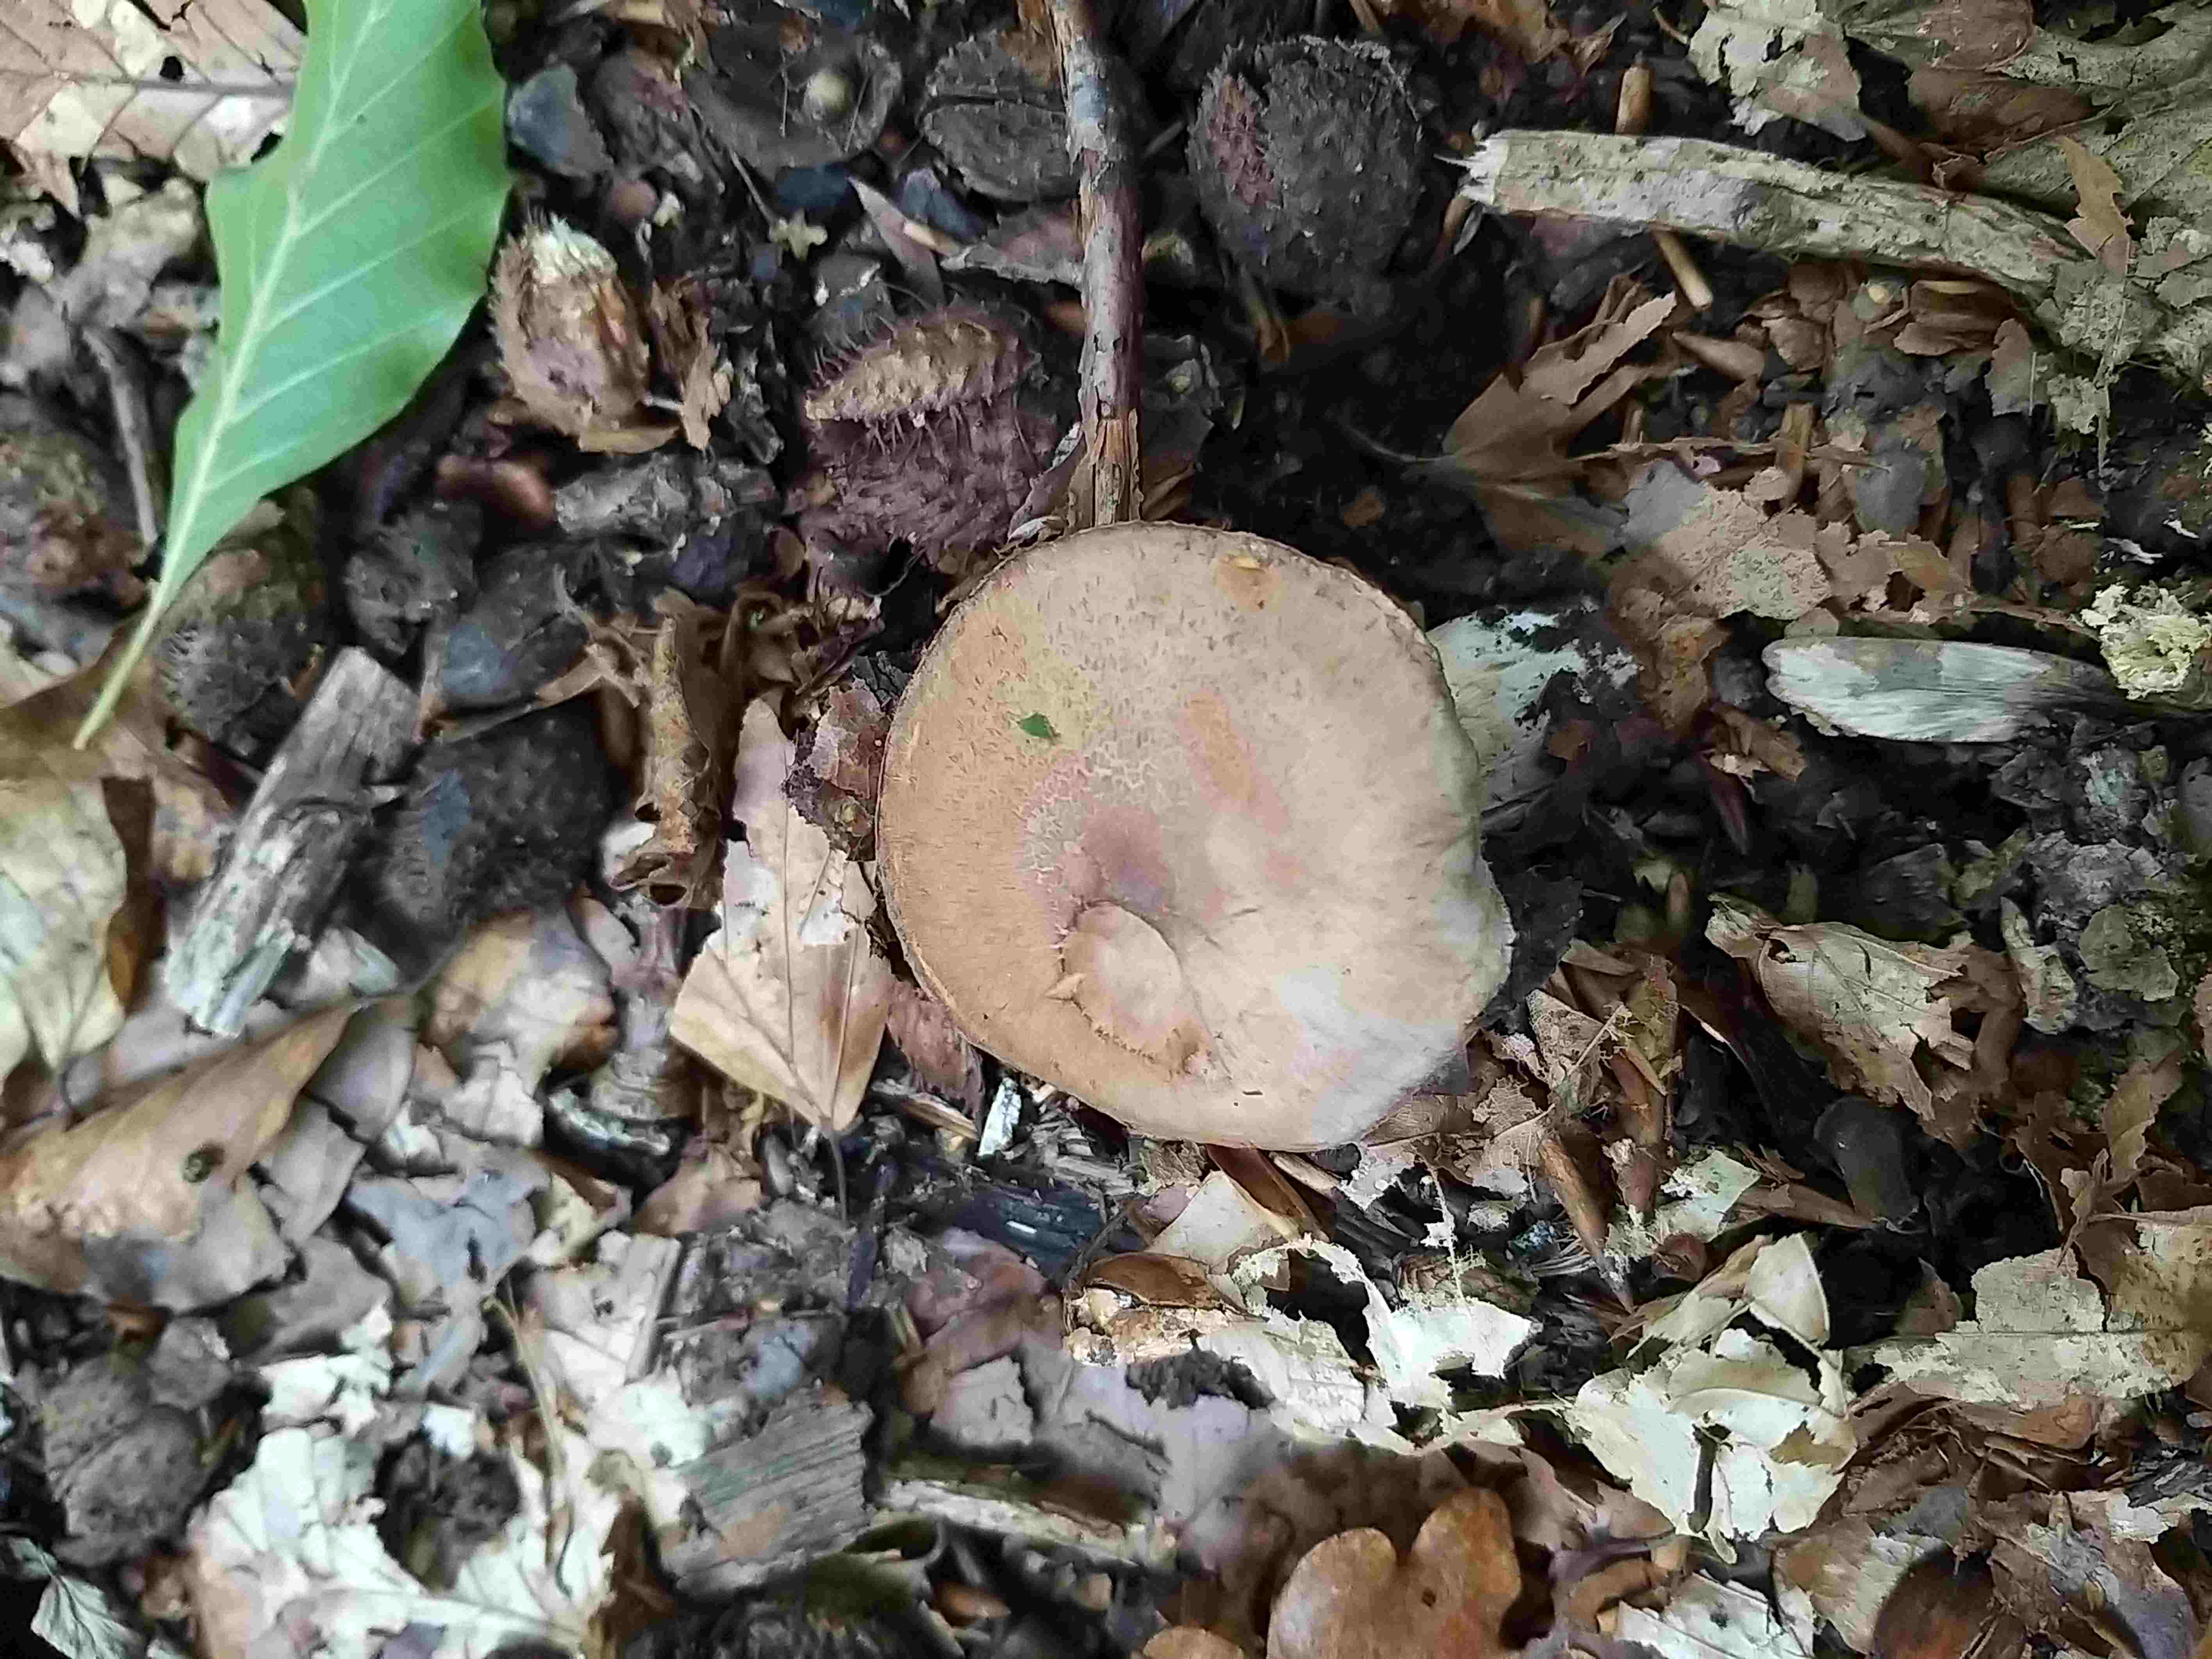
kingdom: Fungi
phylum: Basidiomycota
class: Agaricomycetes
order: Agaricales
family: Cortinariaceae
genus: Cortinarius
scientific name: Cortinarius
